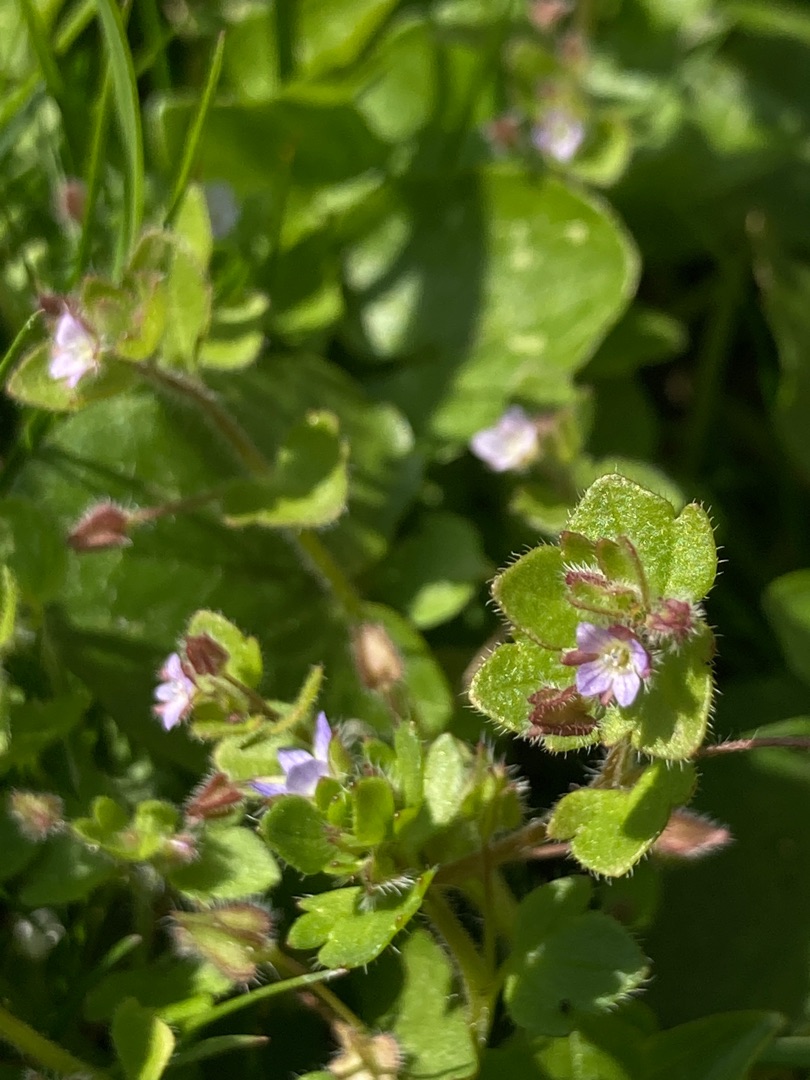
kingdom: Plantae
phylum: Tracheophyta
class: Magnoliopsida
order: Lamiales
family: Plantaginaceae
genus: Veronica
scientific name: Veronica hederifolia
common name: Vedbend-ærenpris
